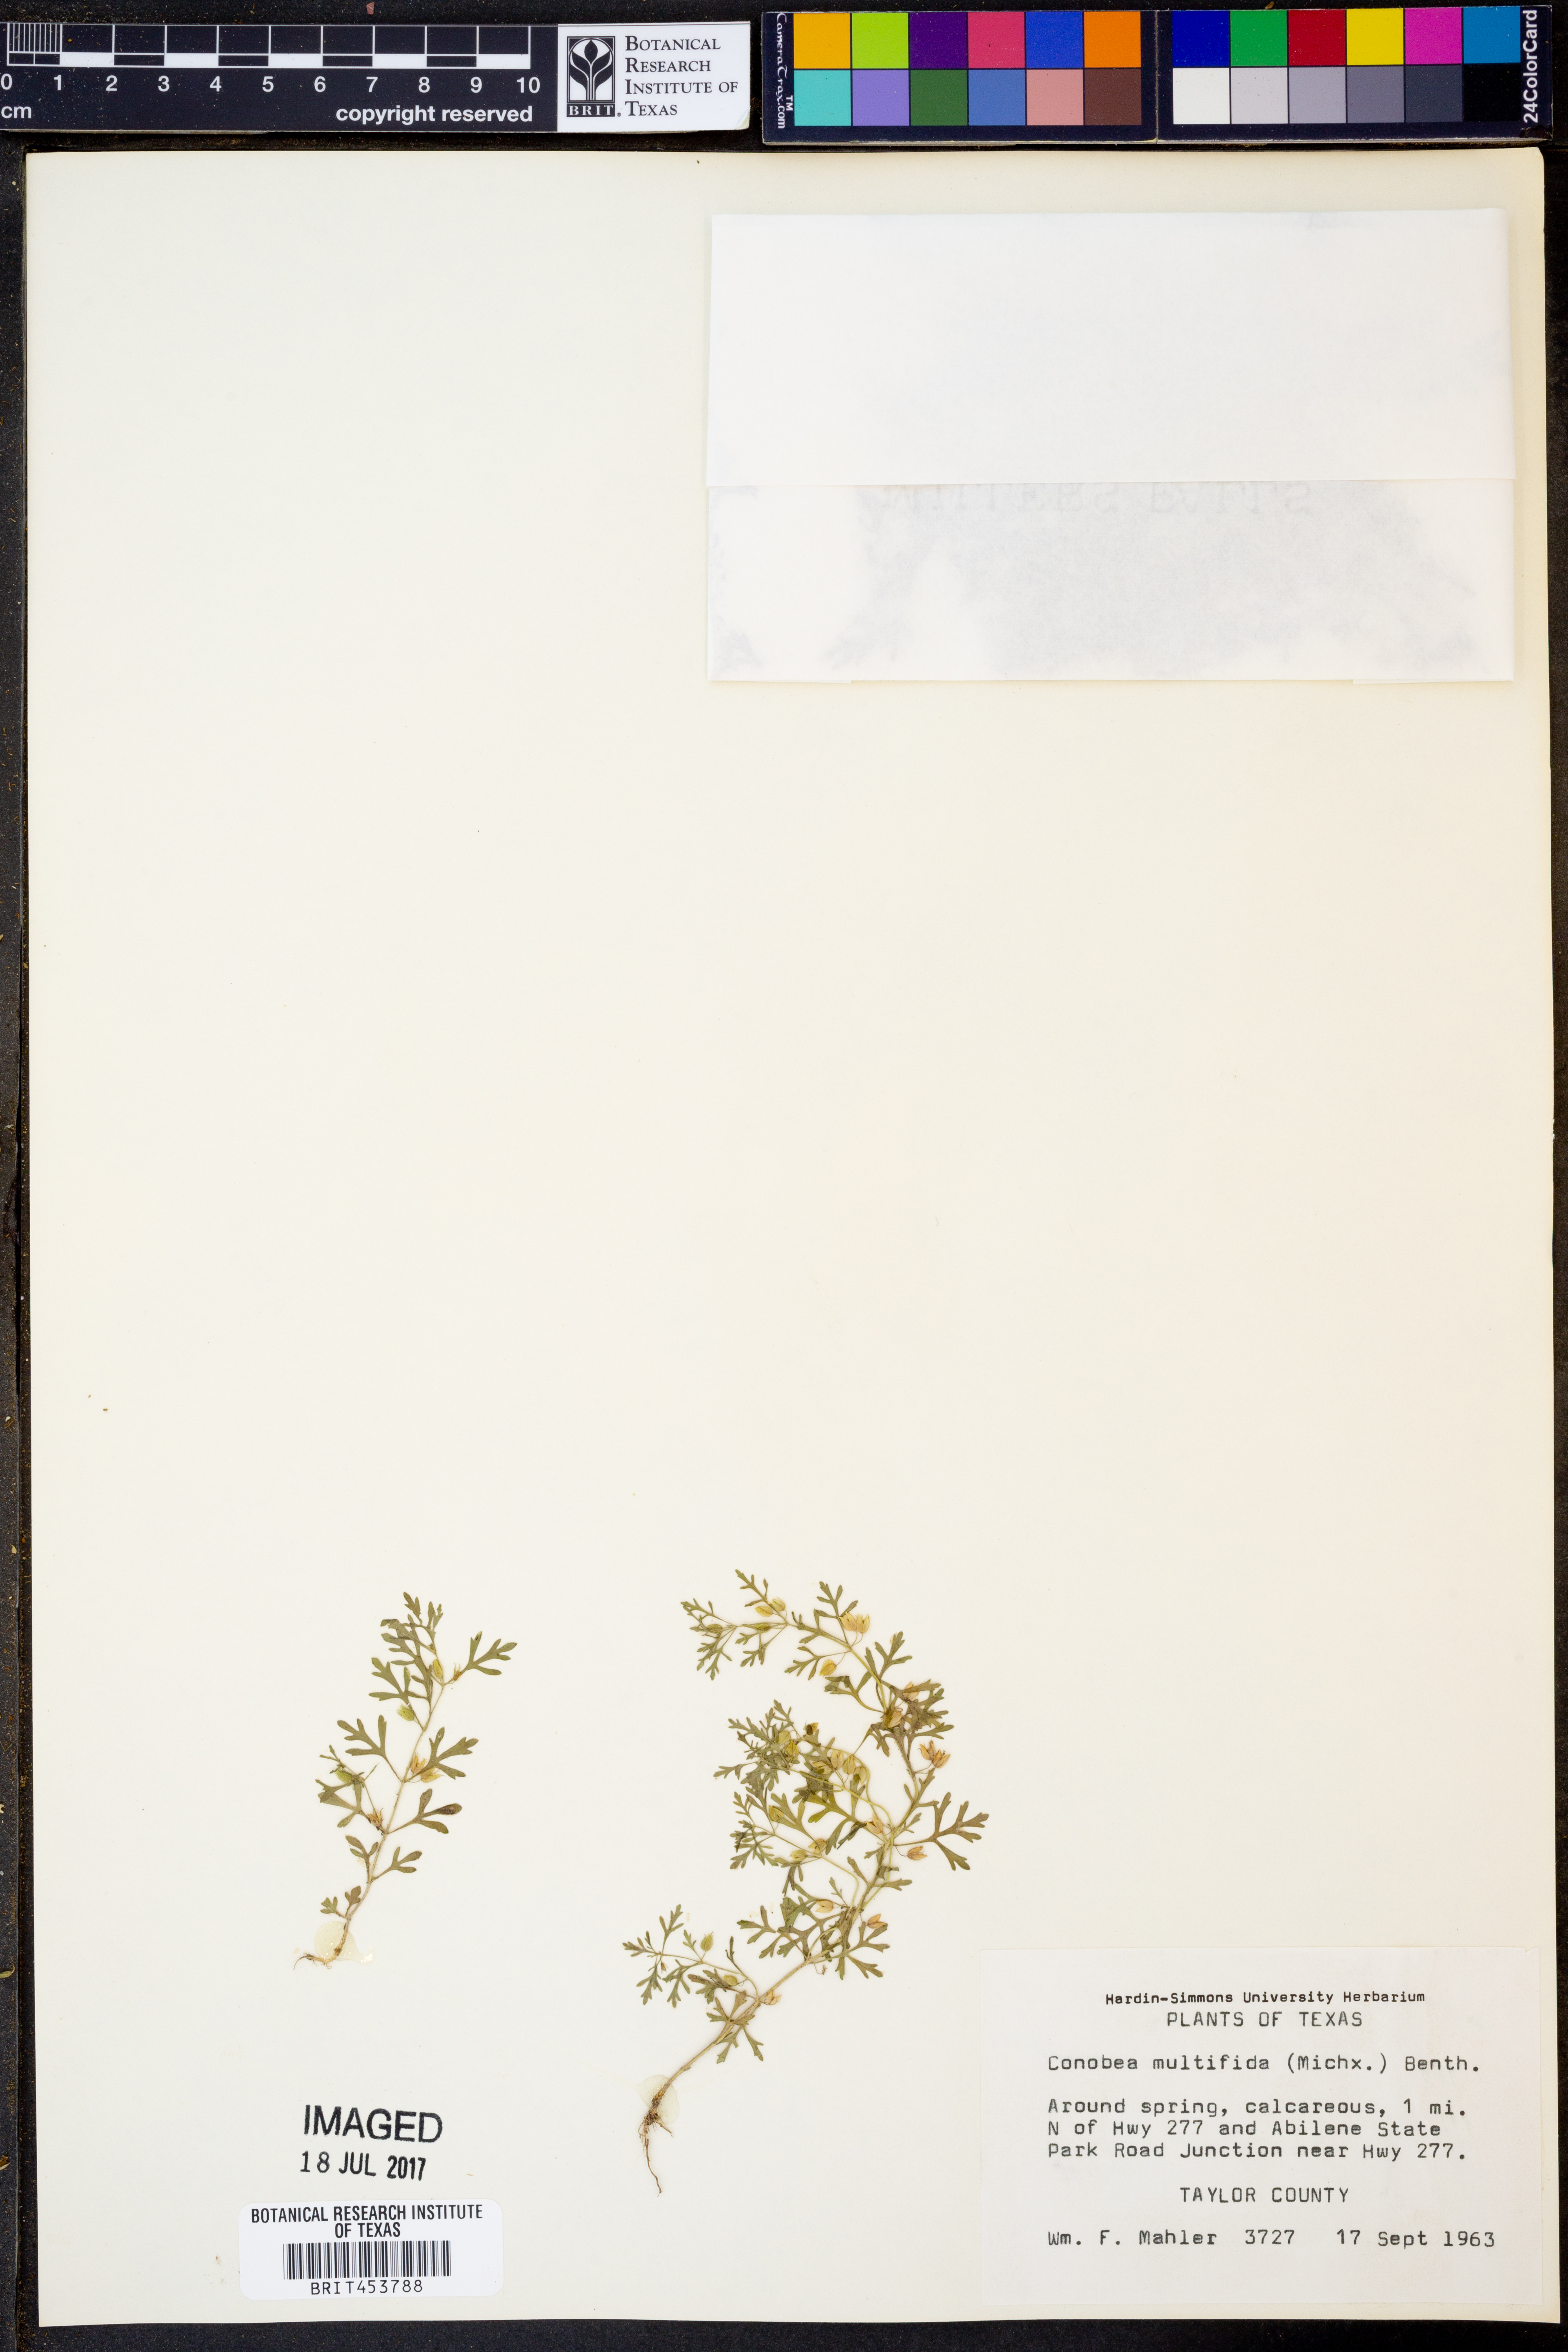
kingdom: Plantae
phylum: Tracheophyta
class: Magnoliopsida
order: Lamiales
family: Plantaginaceae
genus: Leucospora
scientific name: Leucospora multifida
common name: Narrow-leaf paleseed
